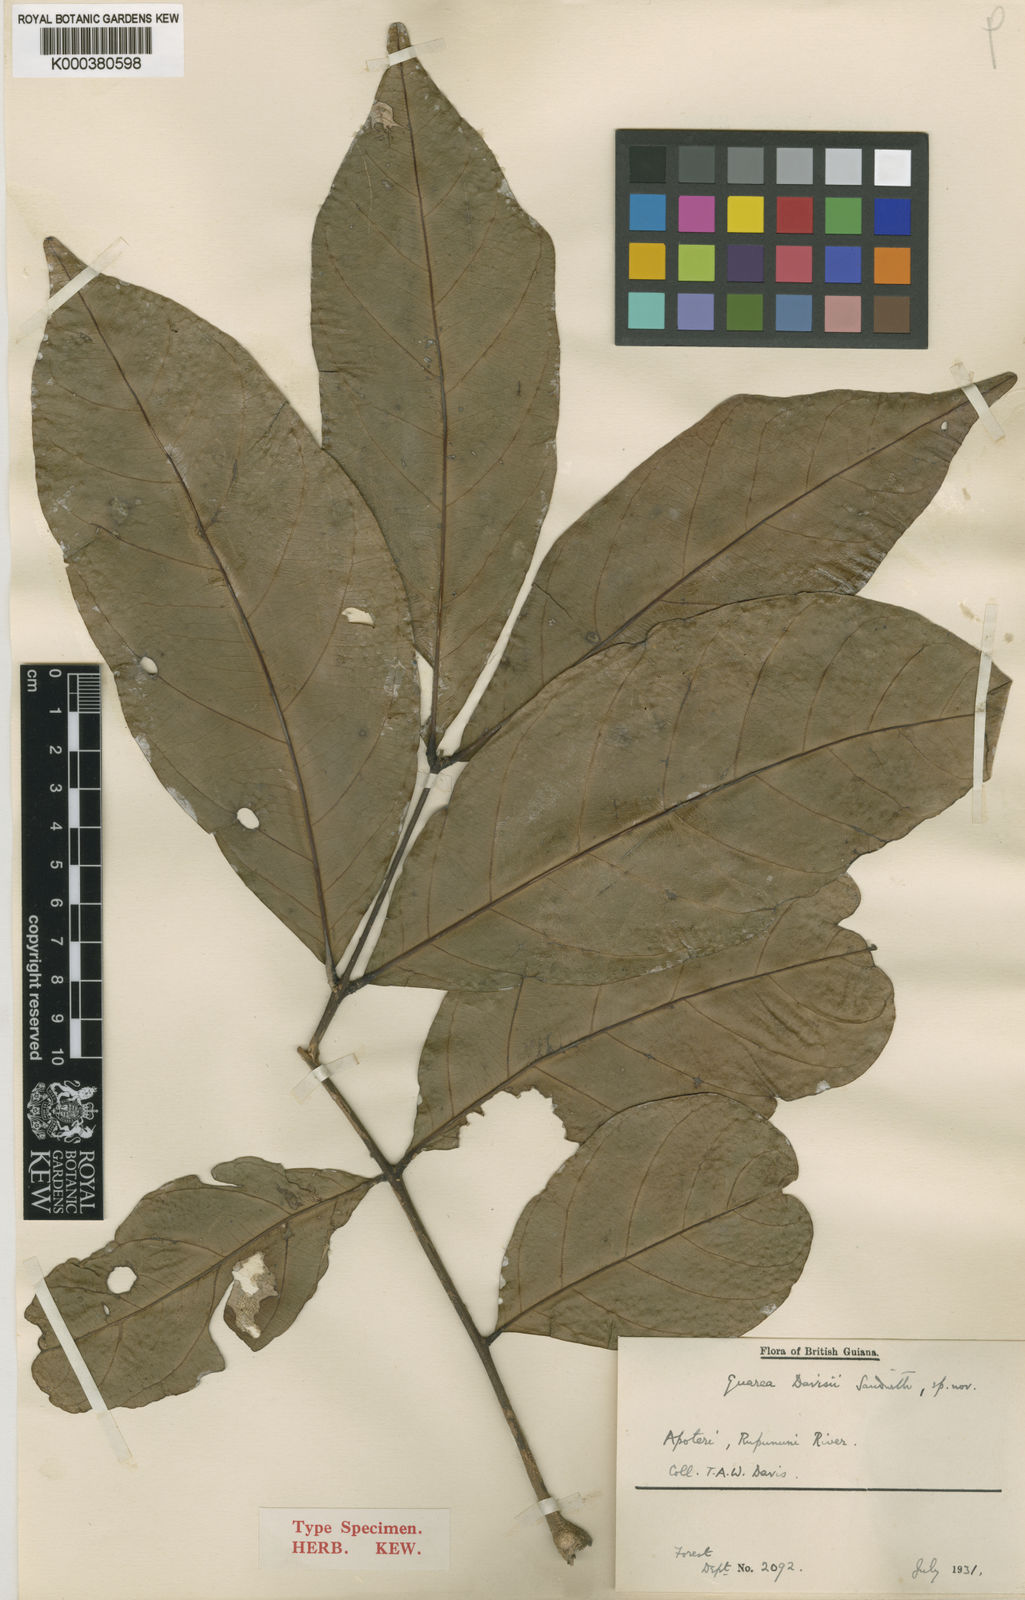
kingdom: Plantae
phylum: Tracheophyta
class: Magnoliopsida
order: Sapindales
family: Meliaceae
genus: Guarea
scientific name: Guarea pubescens
